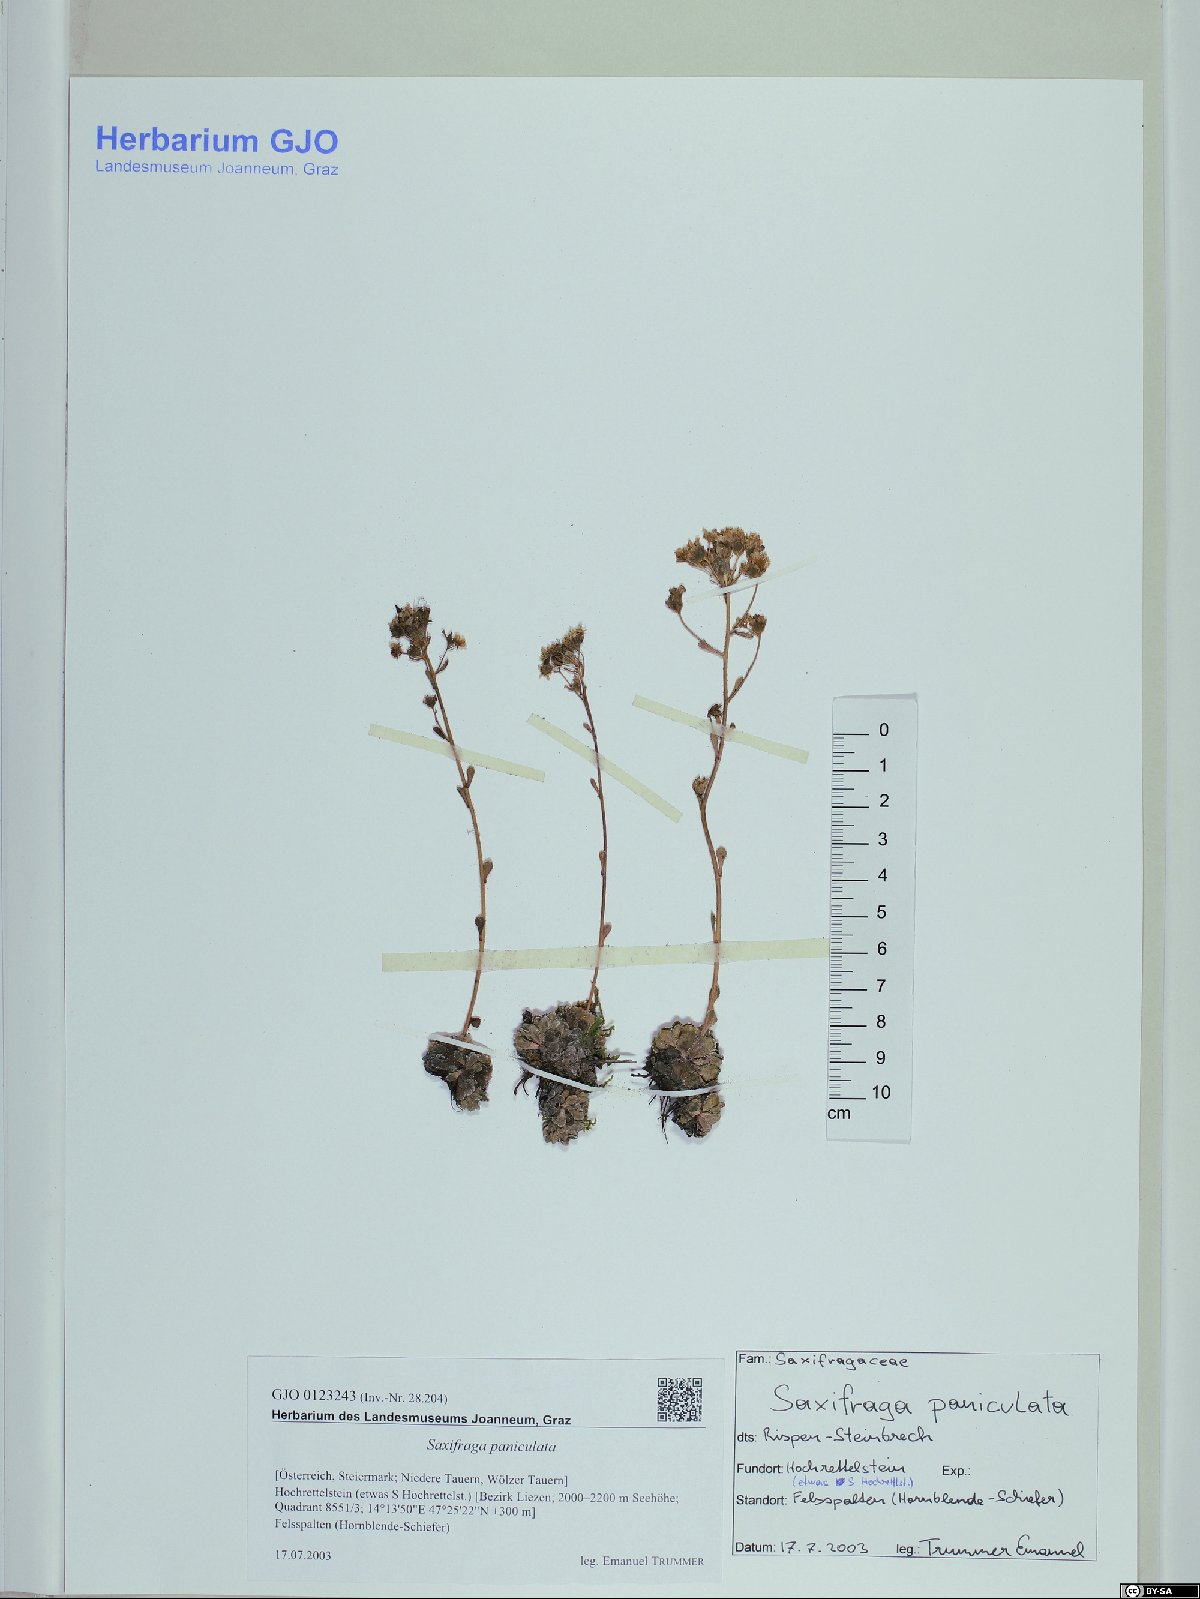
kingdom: Plantae
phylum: Tracheophyta
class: Magnoliopsida
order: Saxifragales
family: Saxifragaceae
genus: Saxifraga
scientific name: Saxifraga paniculata
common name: Livelong saxifrage
